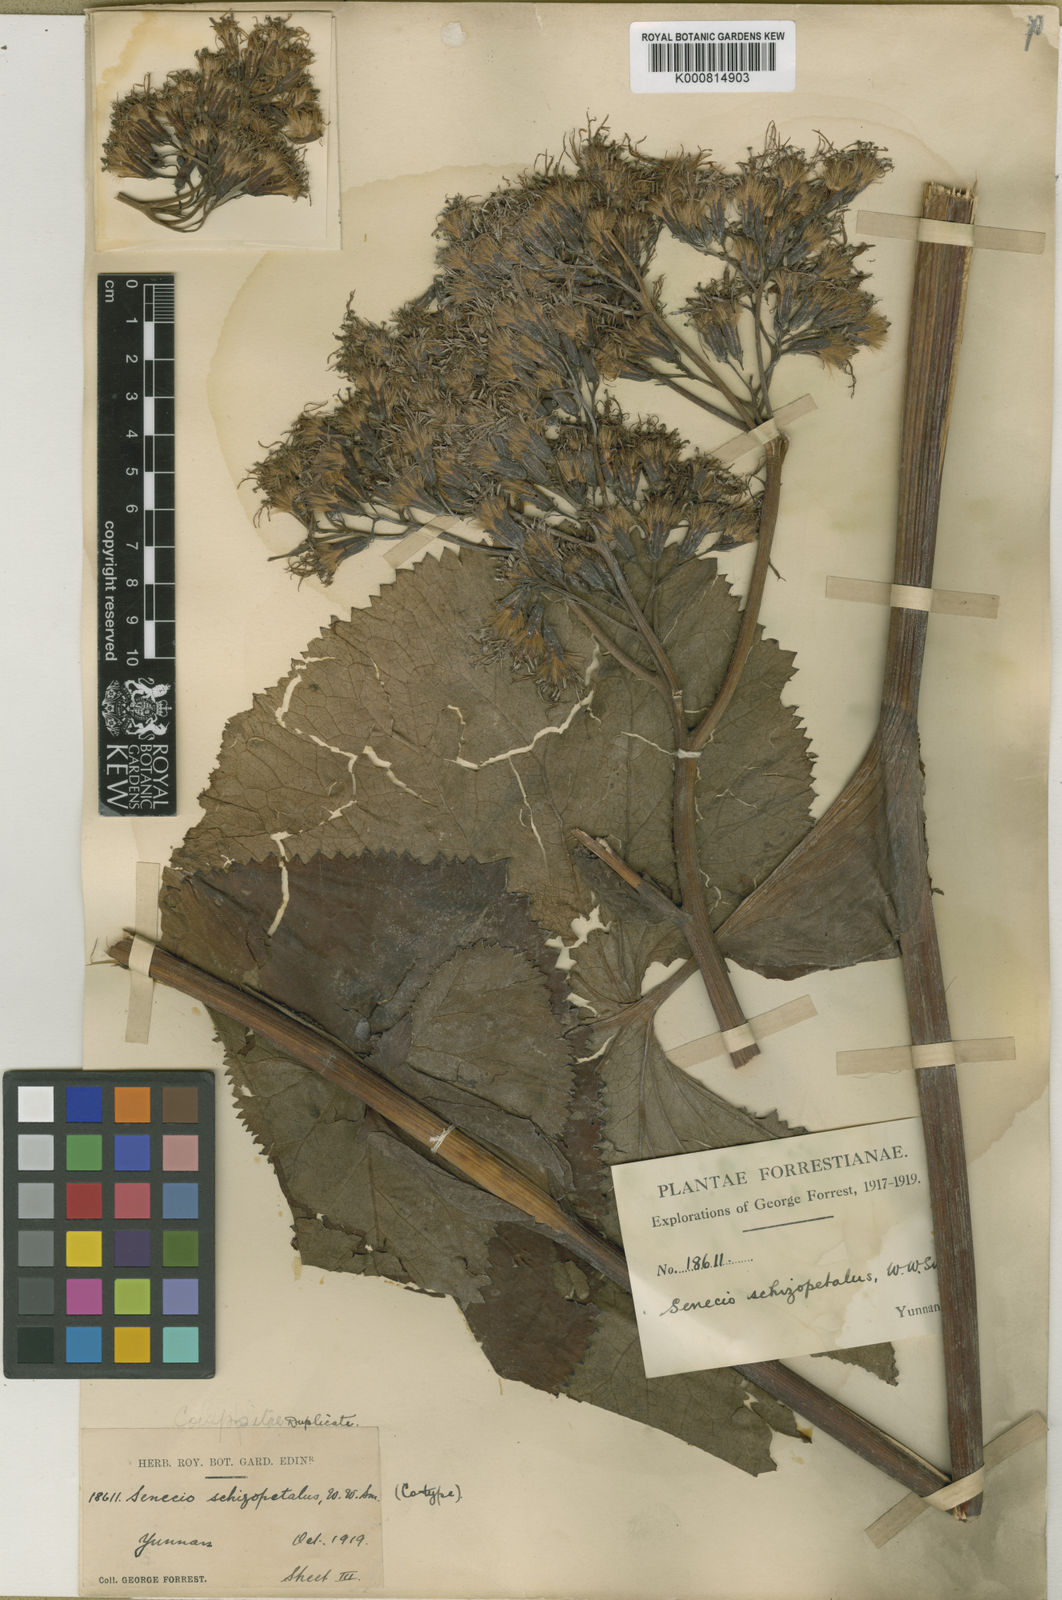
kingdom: Plantae
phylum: Tracheophyta
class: Magnoliopsida
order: Asterales
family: Asteraceae
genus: Ligularia
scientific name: Ligularia stenoglossa
